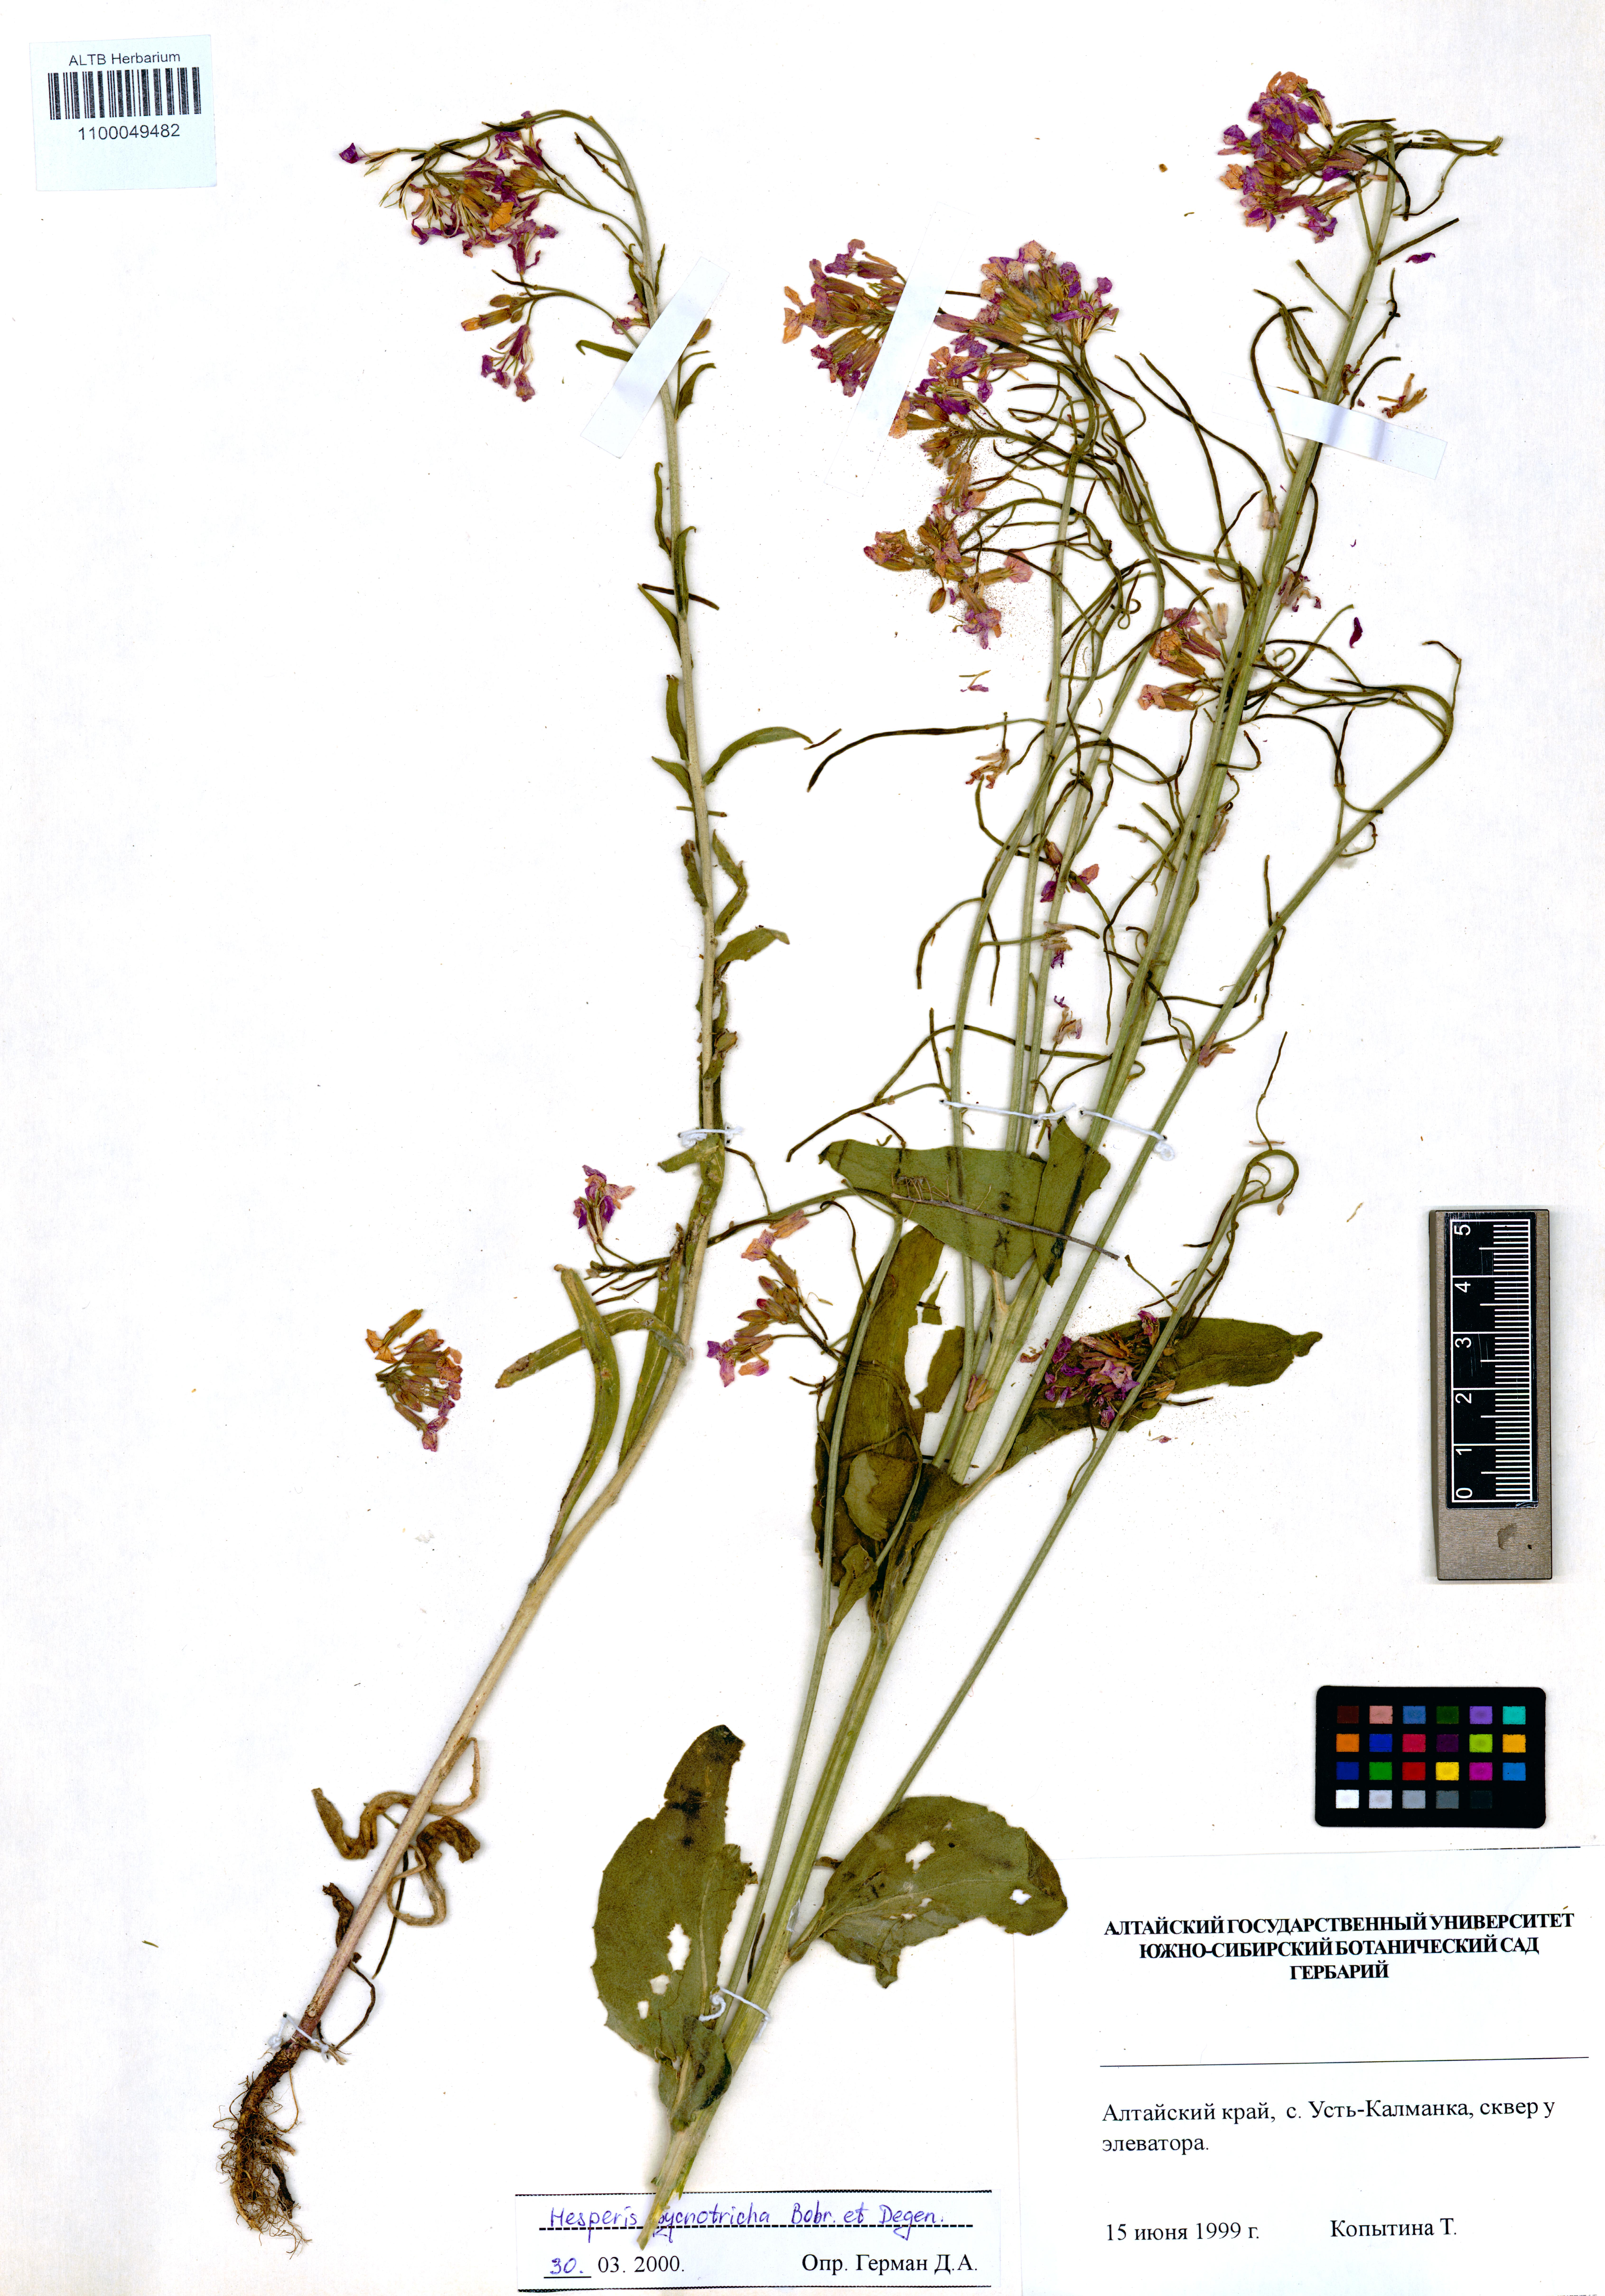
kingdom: Plantae
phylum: Tracheophyta
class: Magnoliopsida
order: Brassicales
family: Brassicaceae
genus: Hesperis
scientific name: Hesperis pycnotricha
